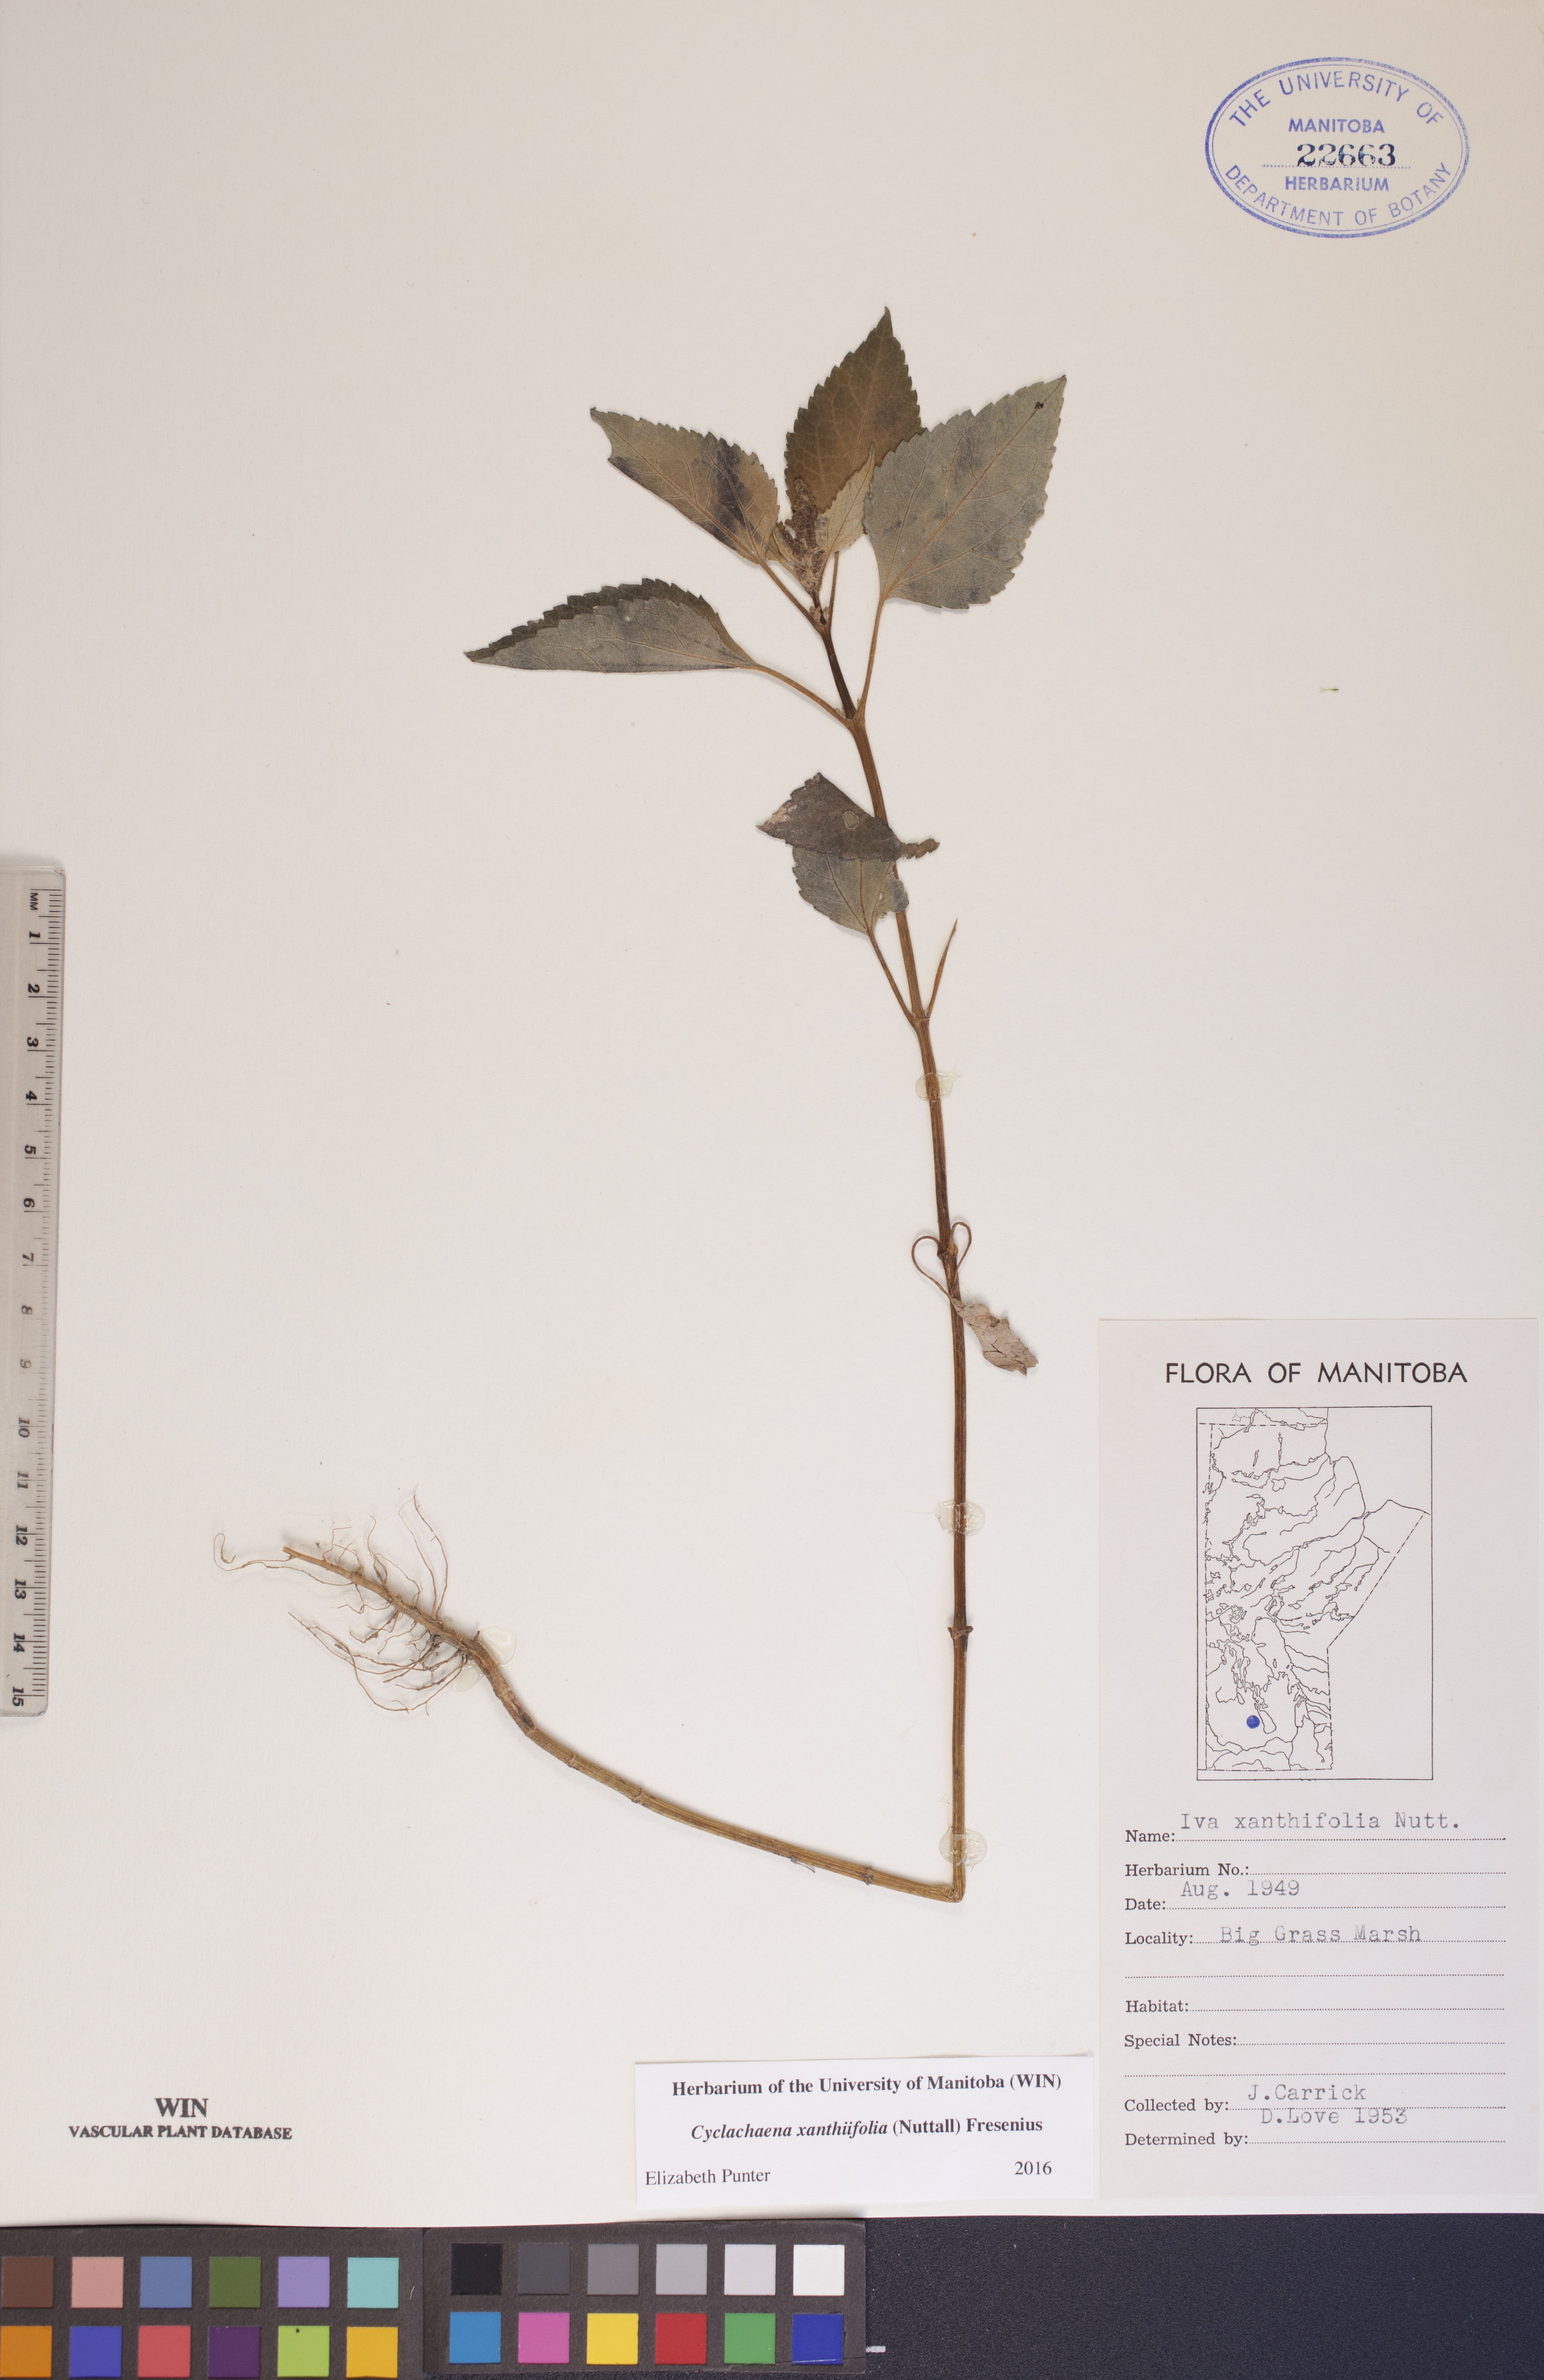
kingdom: Plantae
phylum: Tracheophyta
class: Magnoliopsida
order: Asterales
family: Asteraceae
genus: Cyclachaena
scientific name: Cyclachaena xanthiifolia
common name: Giant sumpweed
